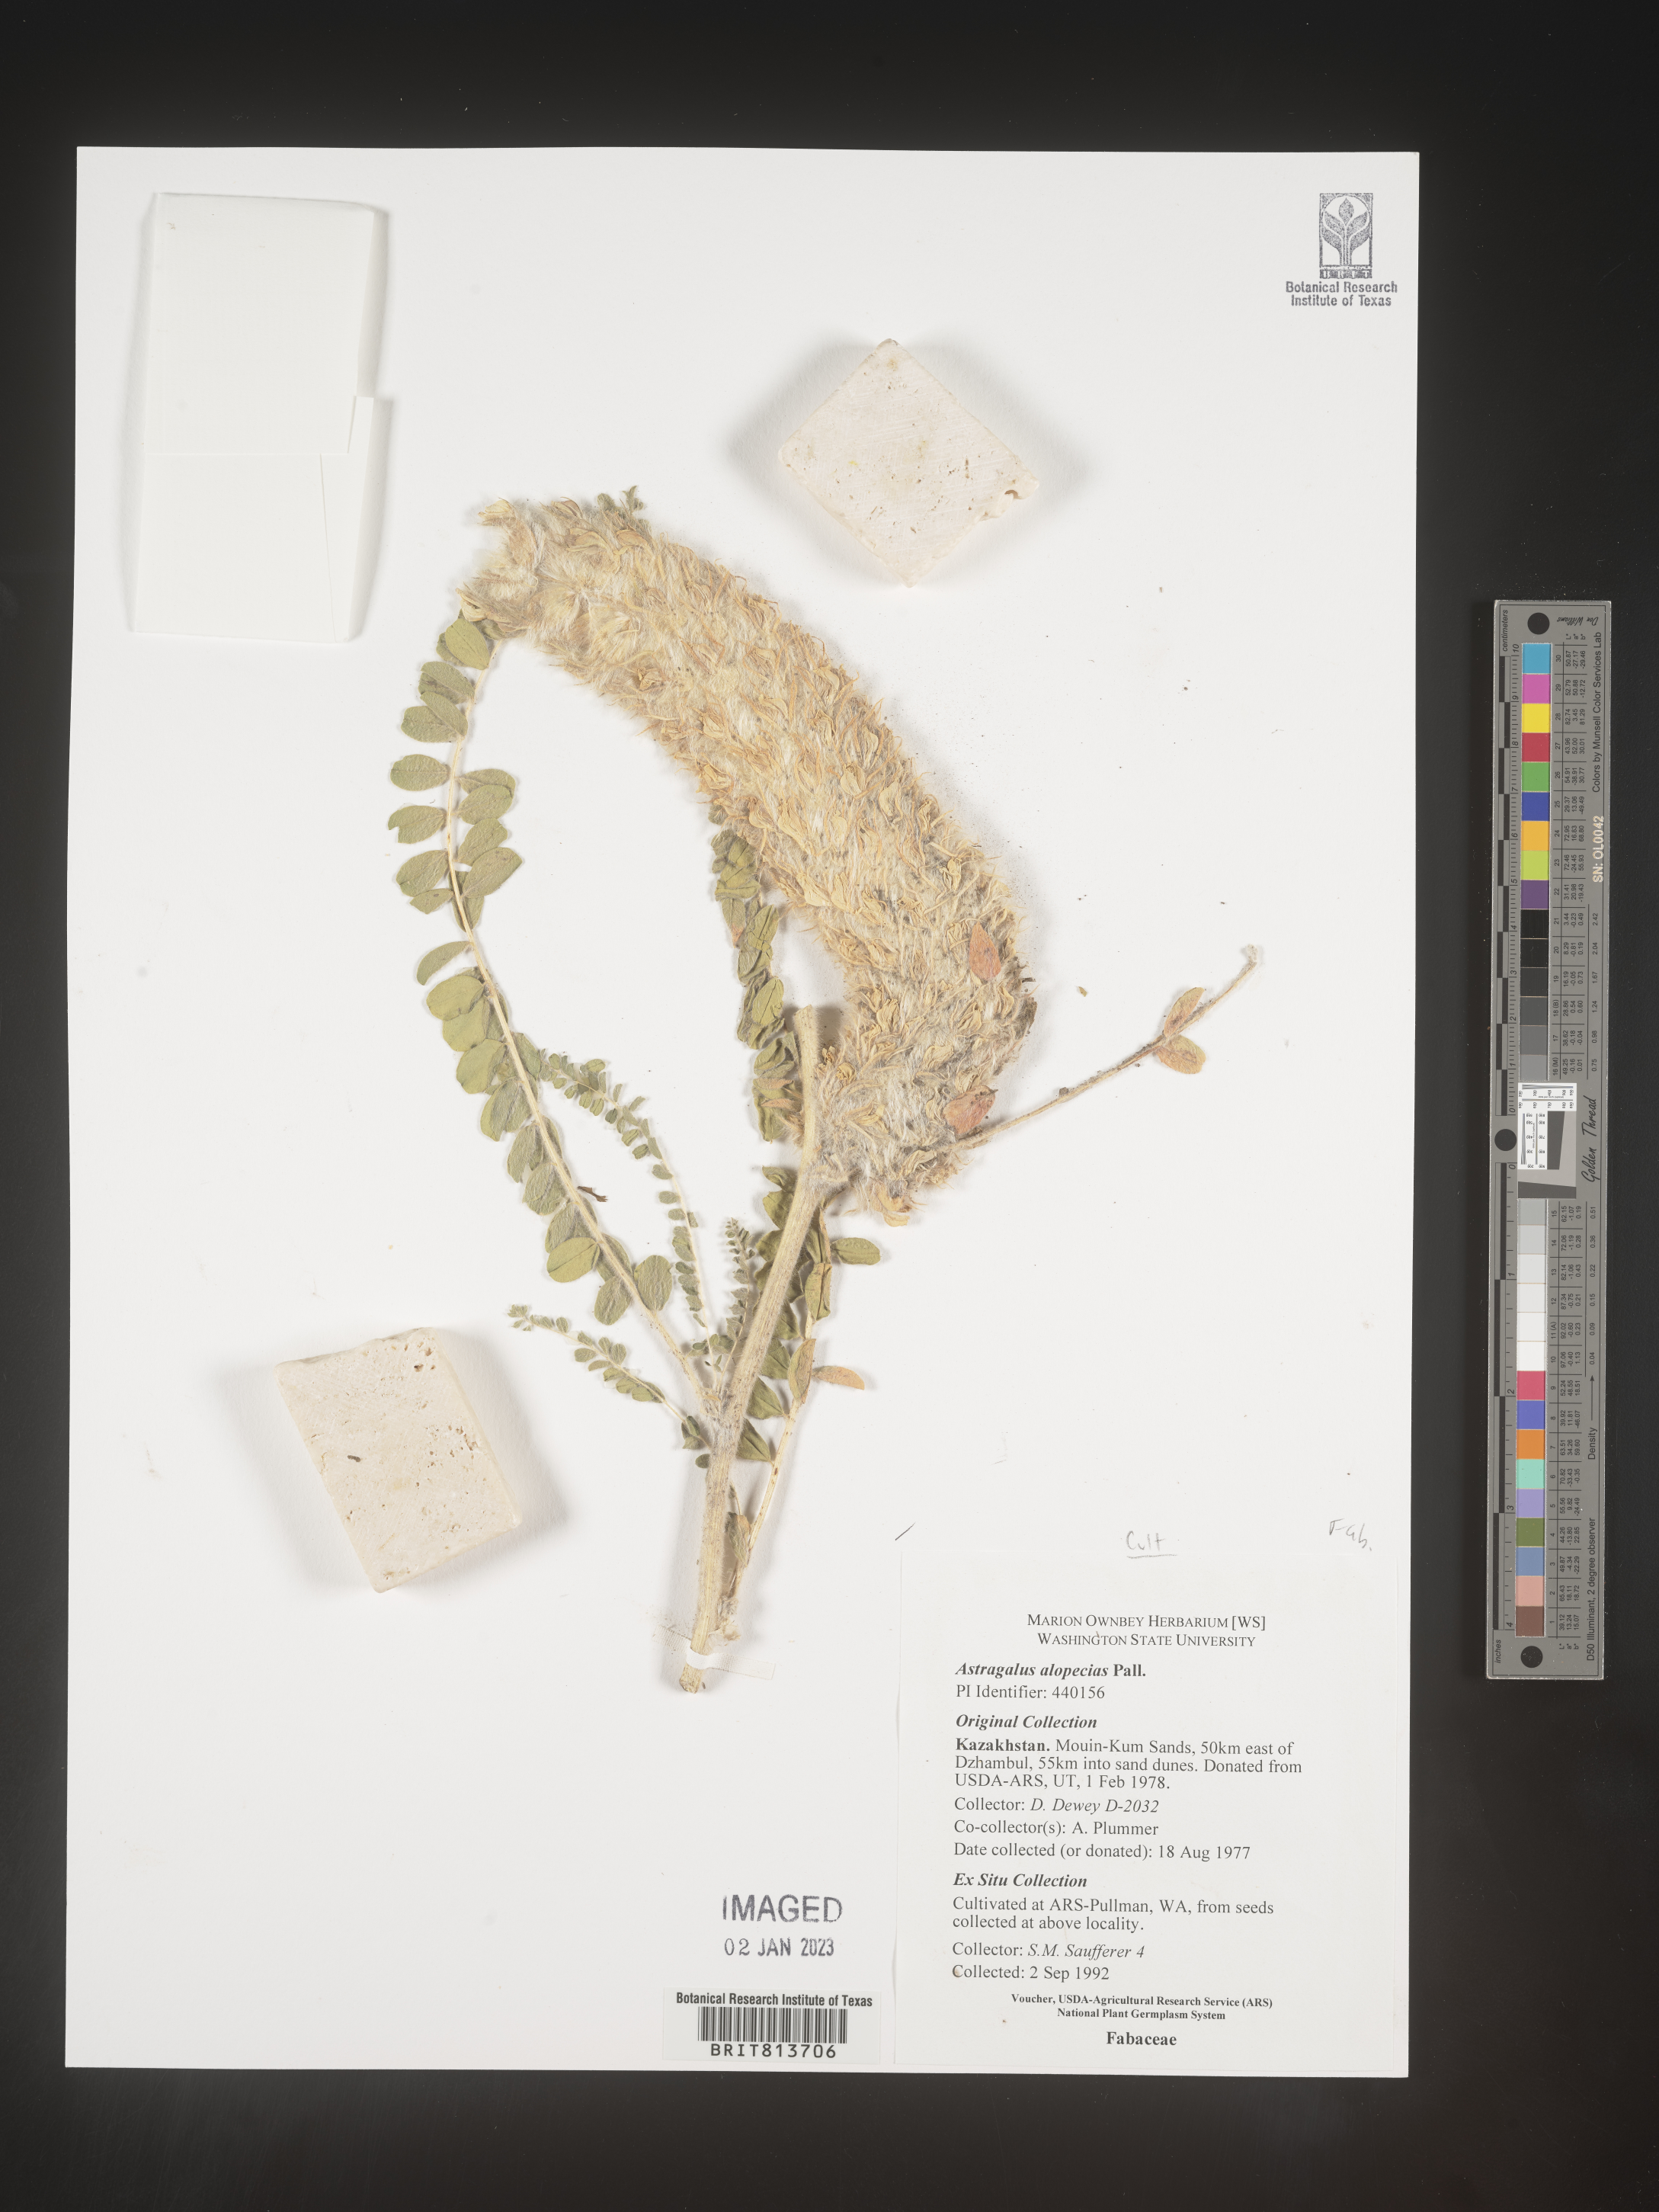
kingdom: Plantae
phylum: Tracheophyta
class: Magnoliopsida
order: Fabales
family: Fabaceae
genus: Astragalus
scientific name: Astragalus
